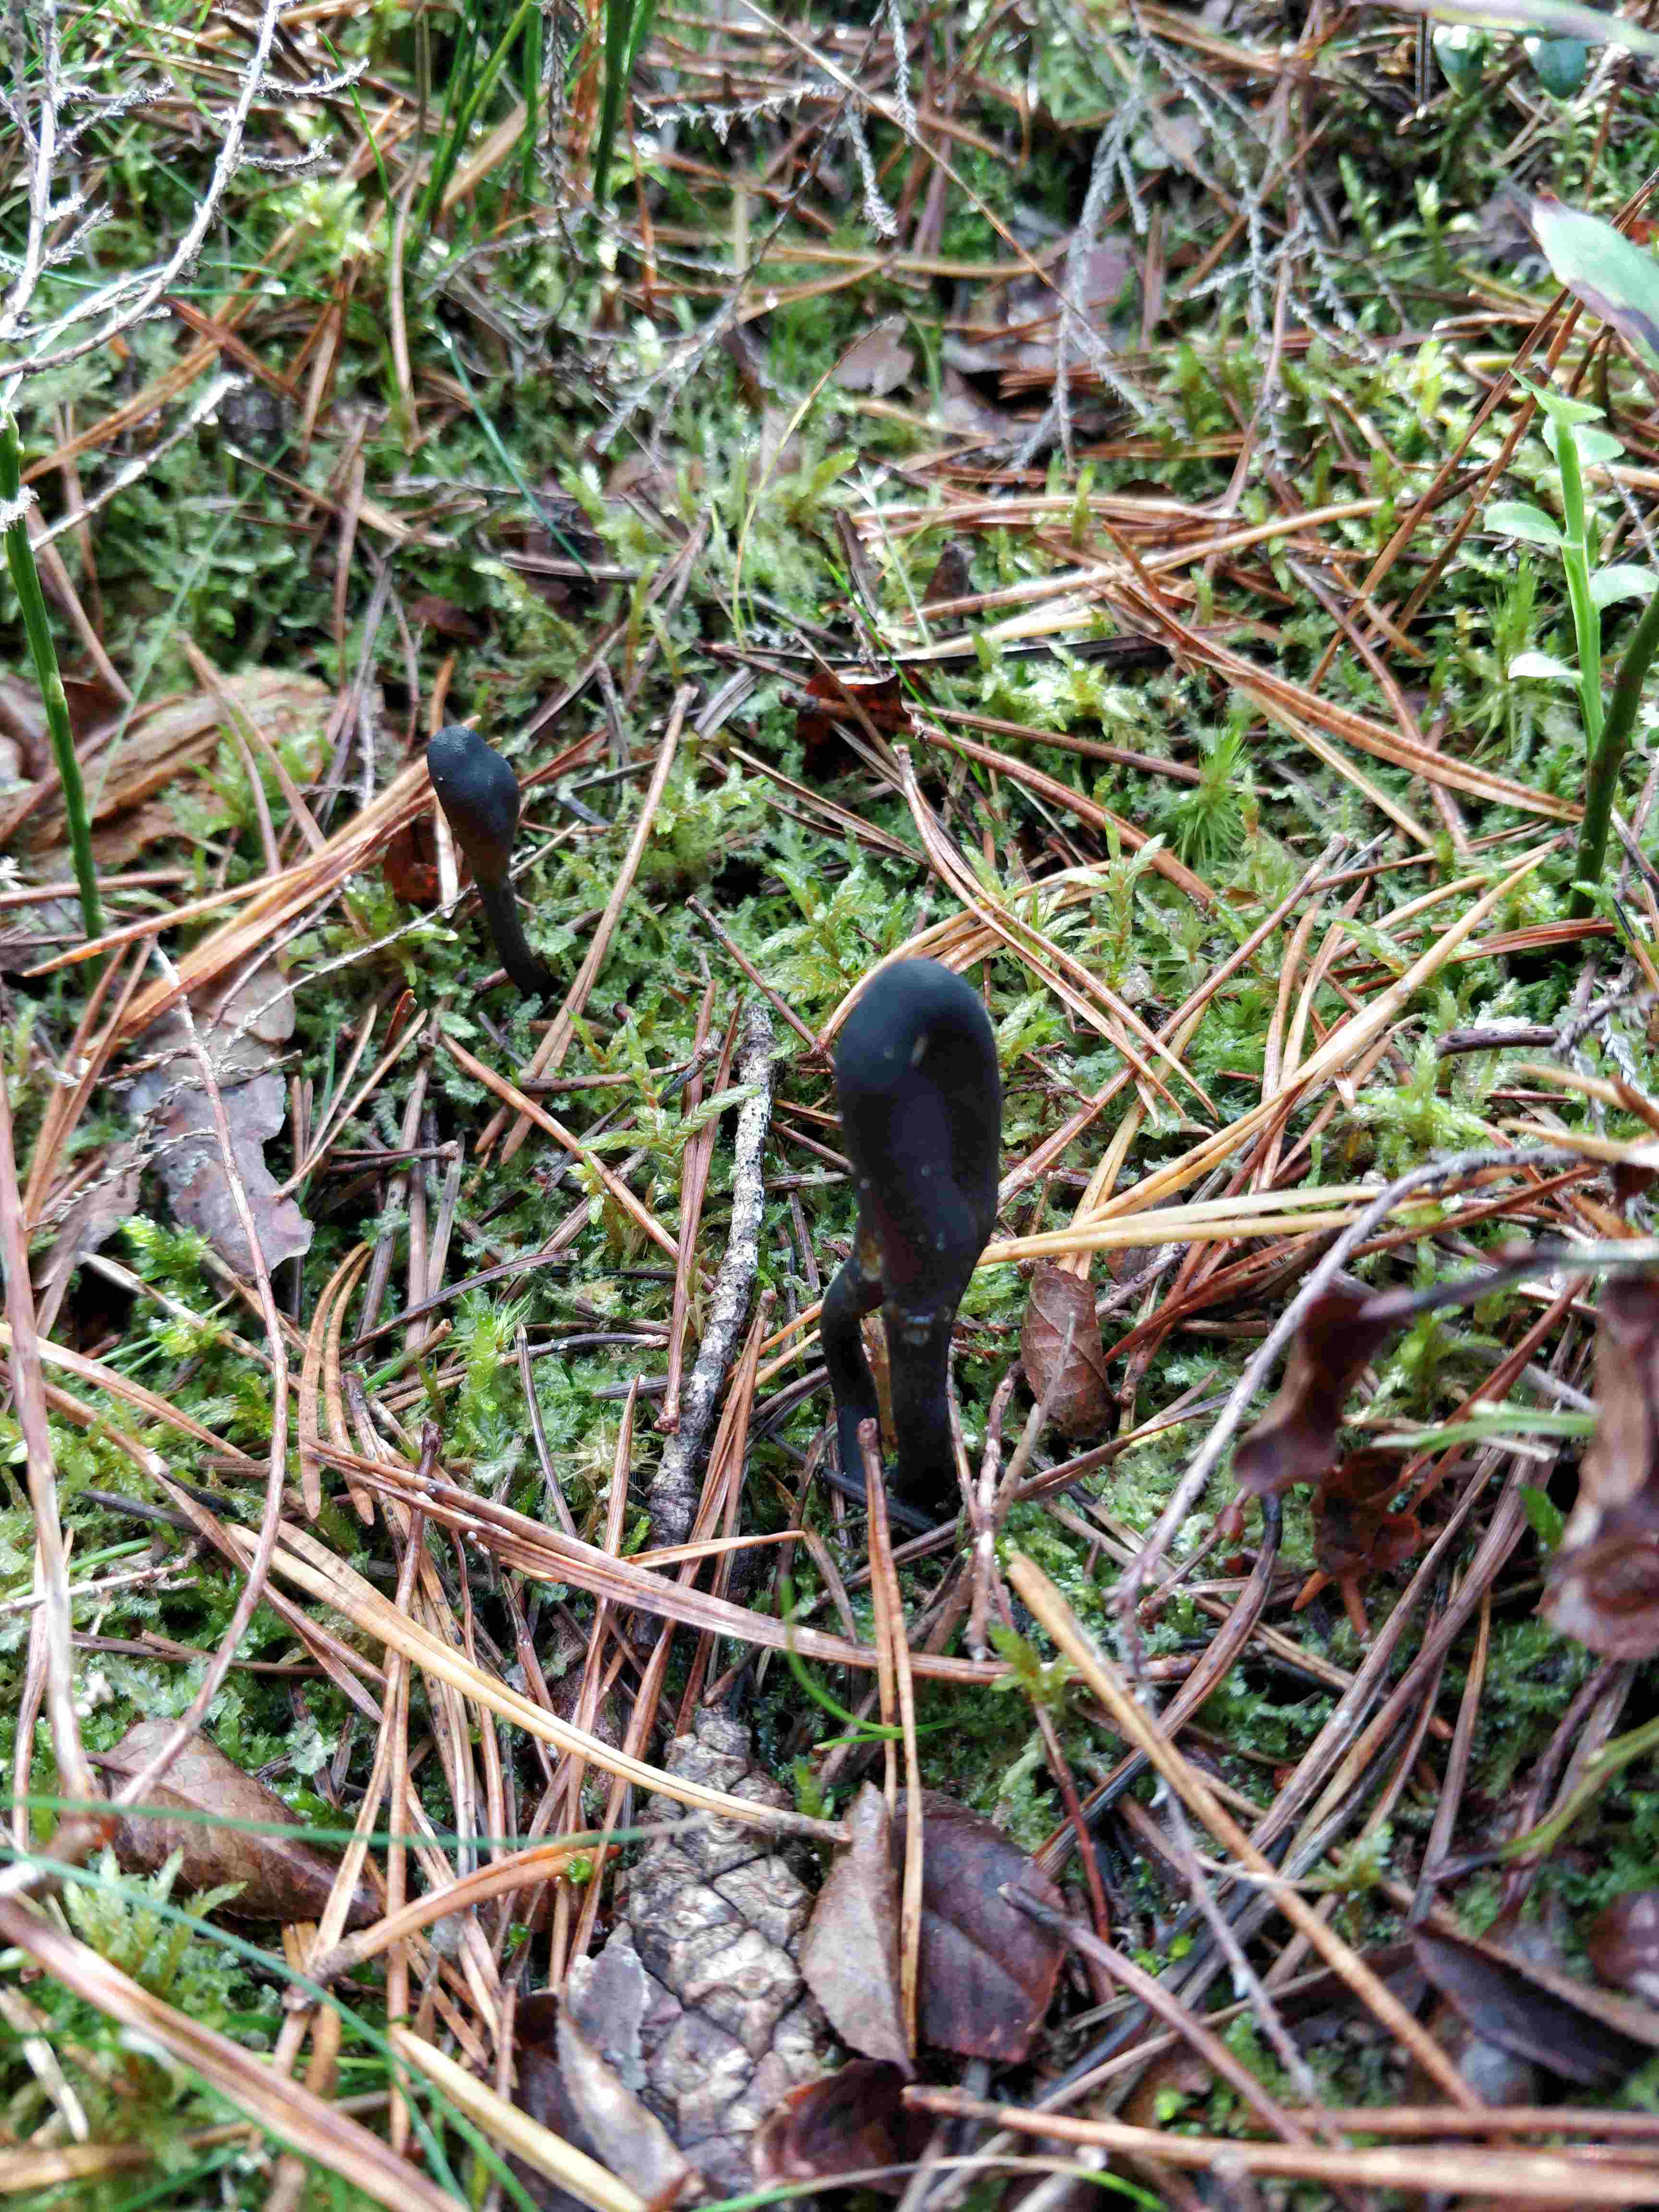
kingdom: Fungi
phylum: Ascomycota
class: Sordariomycetes
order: Hypocreales
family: Ophiocordycipitaceae
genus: Tolypocladium
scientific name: Tolypocladium ophioglossoides
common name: slank snyltekølle
